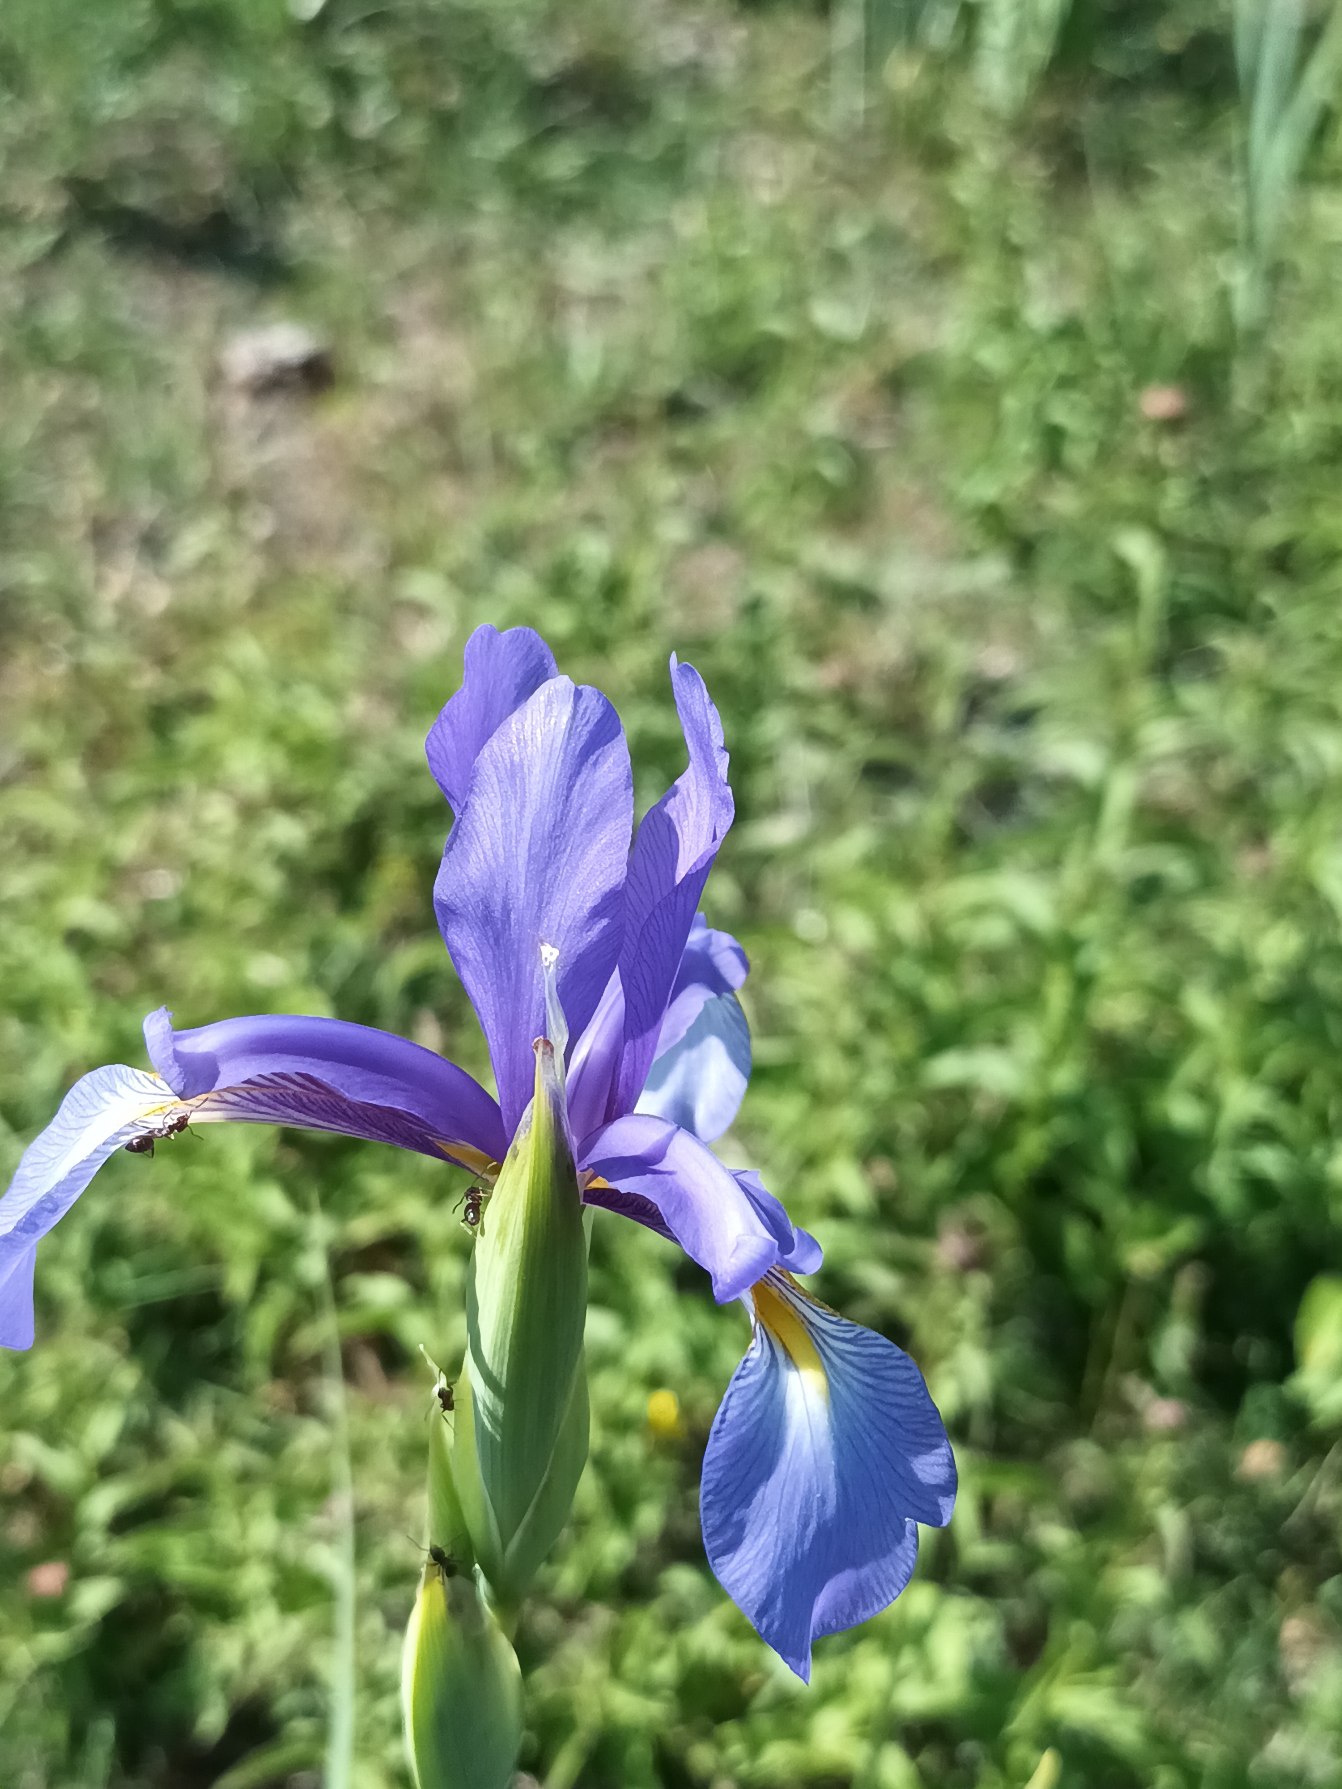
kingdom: Plantae
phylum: Tracheophyta
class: Liliopsida
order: Asparagales
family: Iridaceae
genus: Iris
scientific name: Iris spuria
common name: Blå iris
